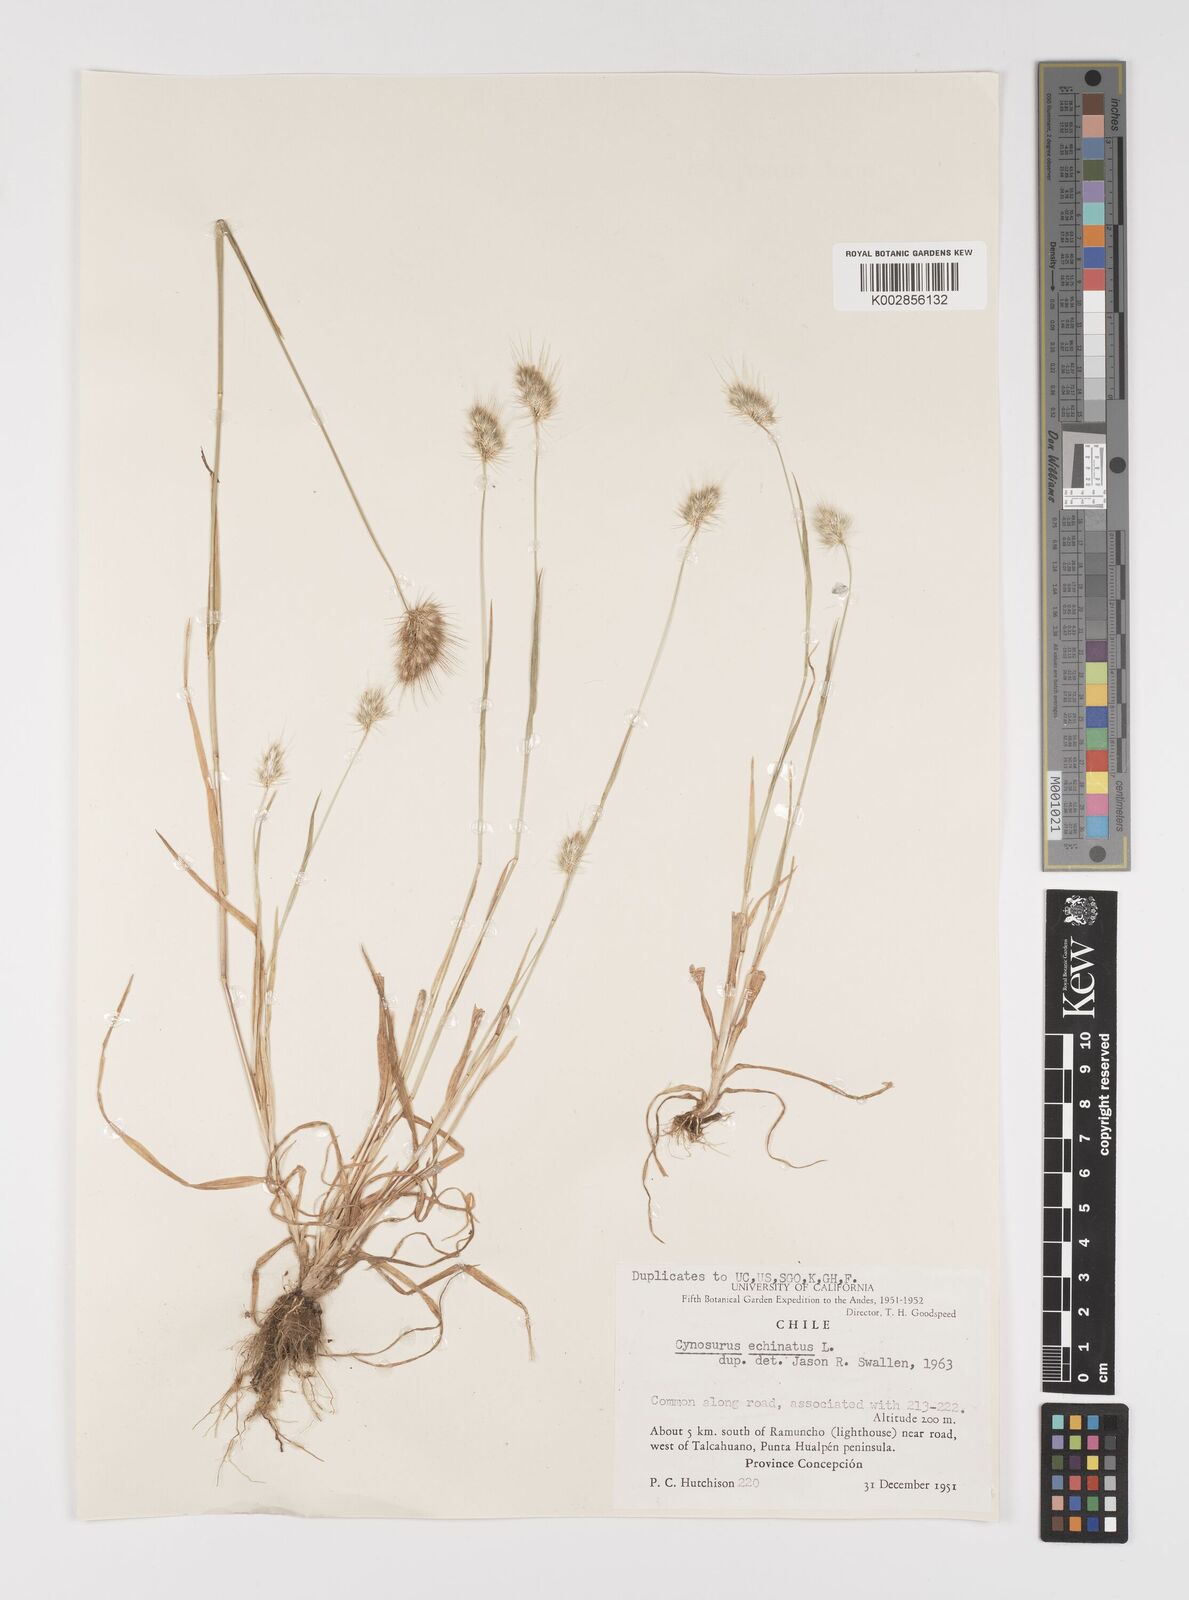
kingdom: Plantae
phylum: Tracheophyta
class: Liliopsida
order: Poales
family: Poaceae
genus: Cynosurus
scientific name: Cynosurus echinatus
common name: Rough dog's-tail
